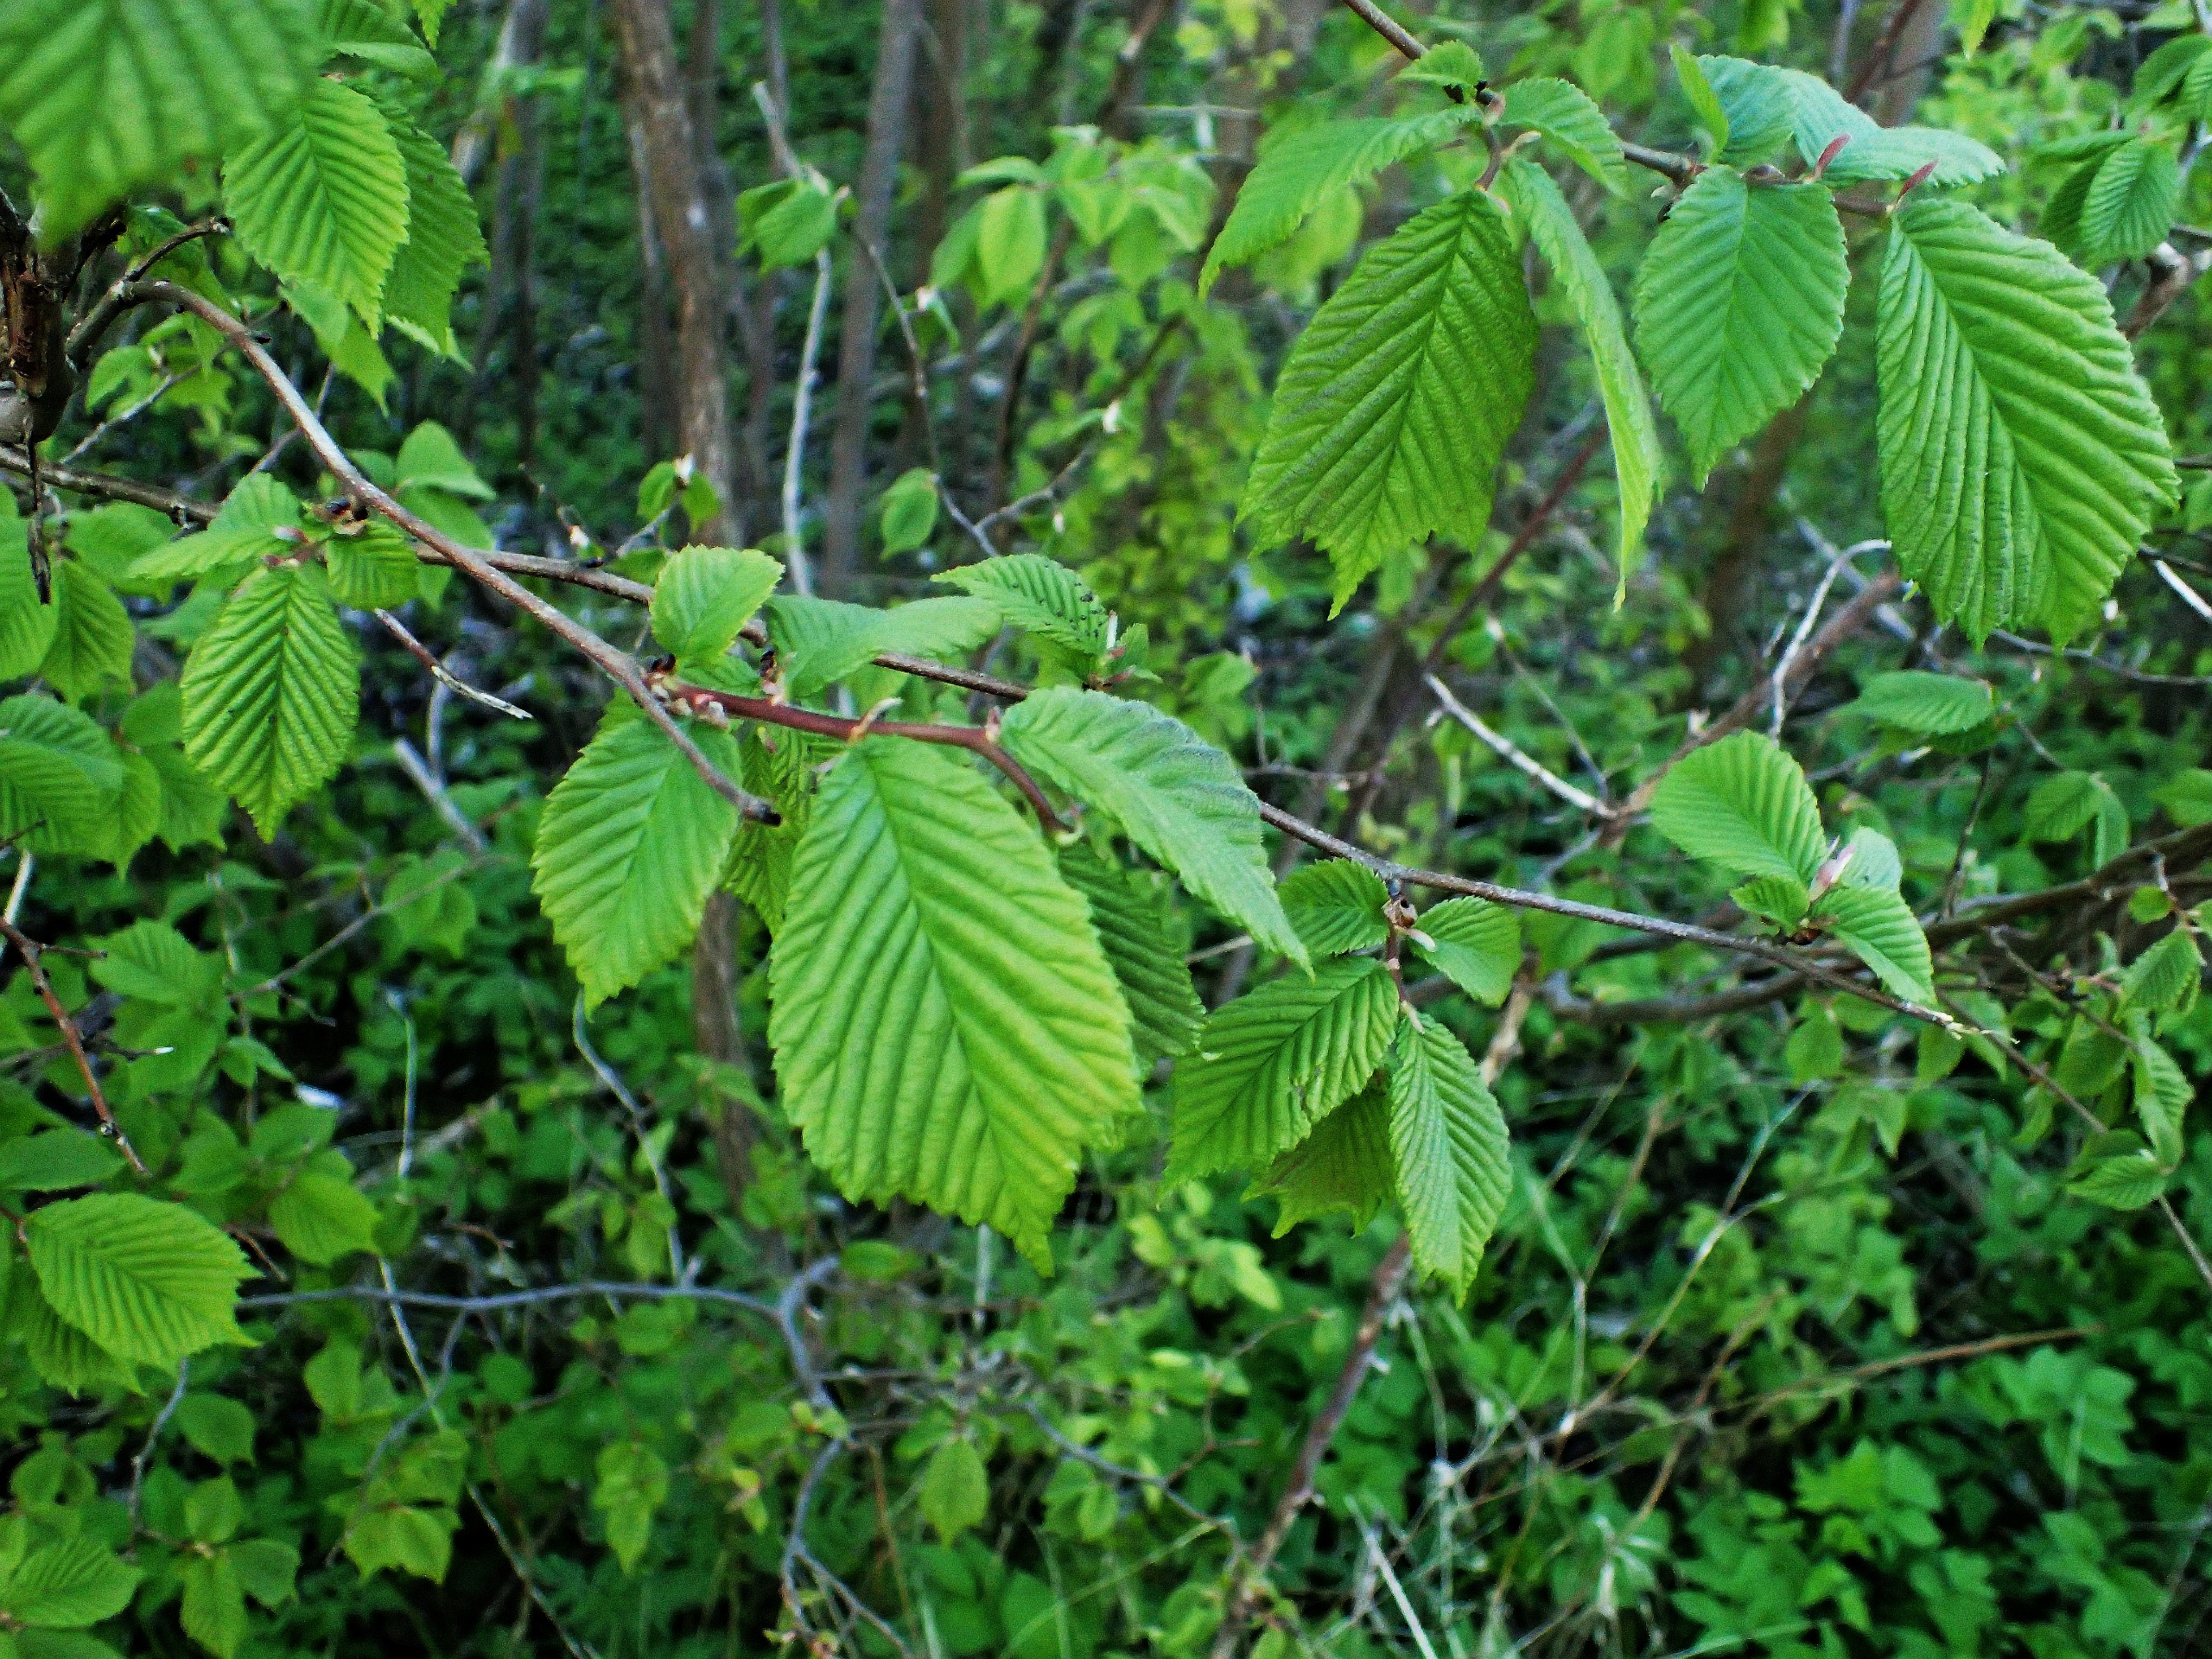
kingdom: Plantae
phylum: Tracheophyta
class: Magnoliopsida
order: Rosales
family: Ulmaceae
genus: Ulmus
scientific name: Ulmus glabra
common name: Skov-elm/storbladet elm
